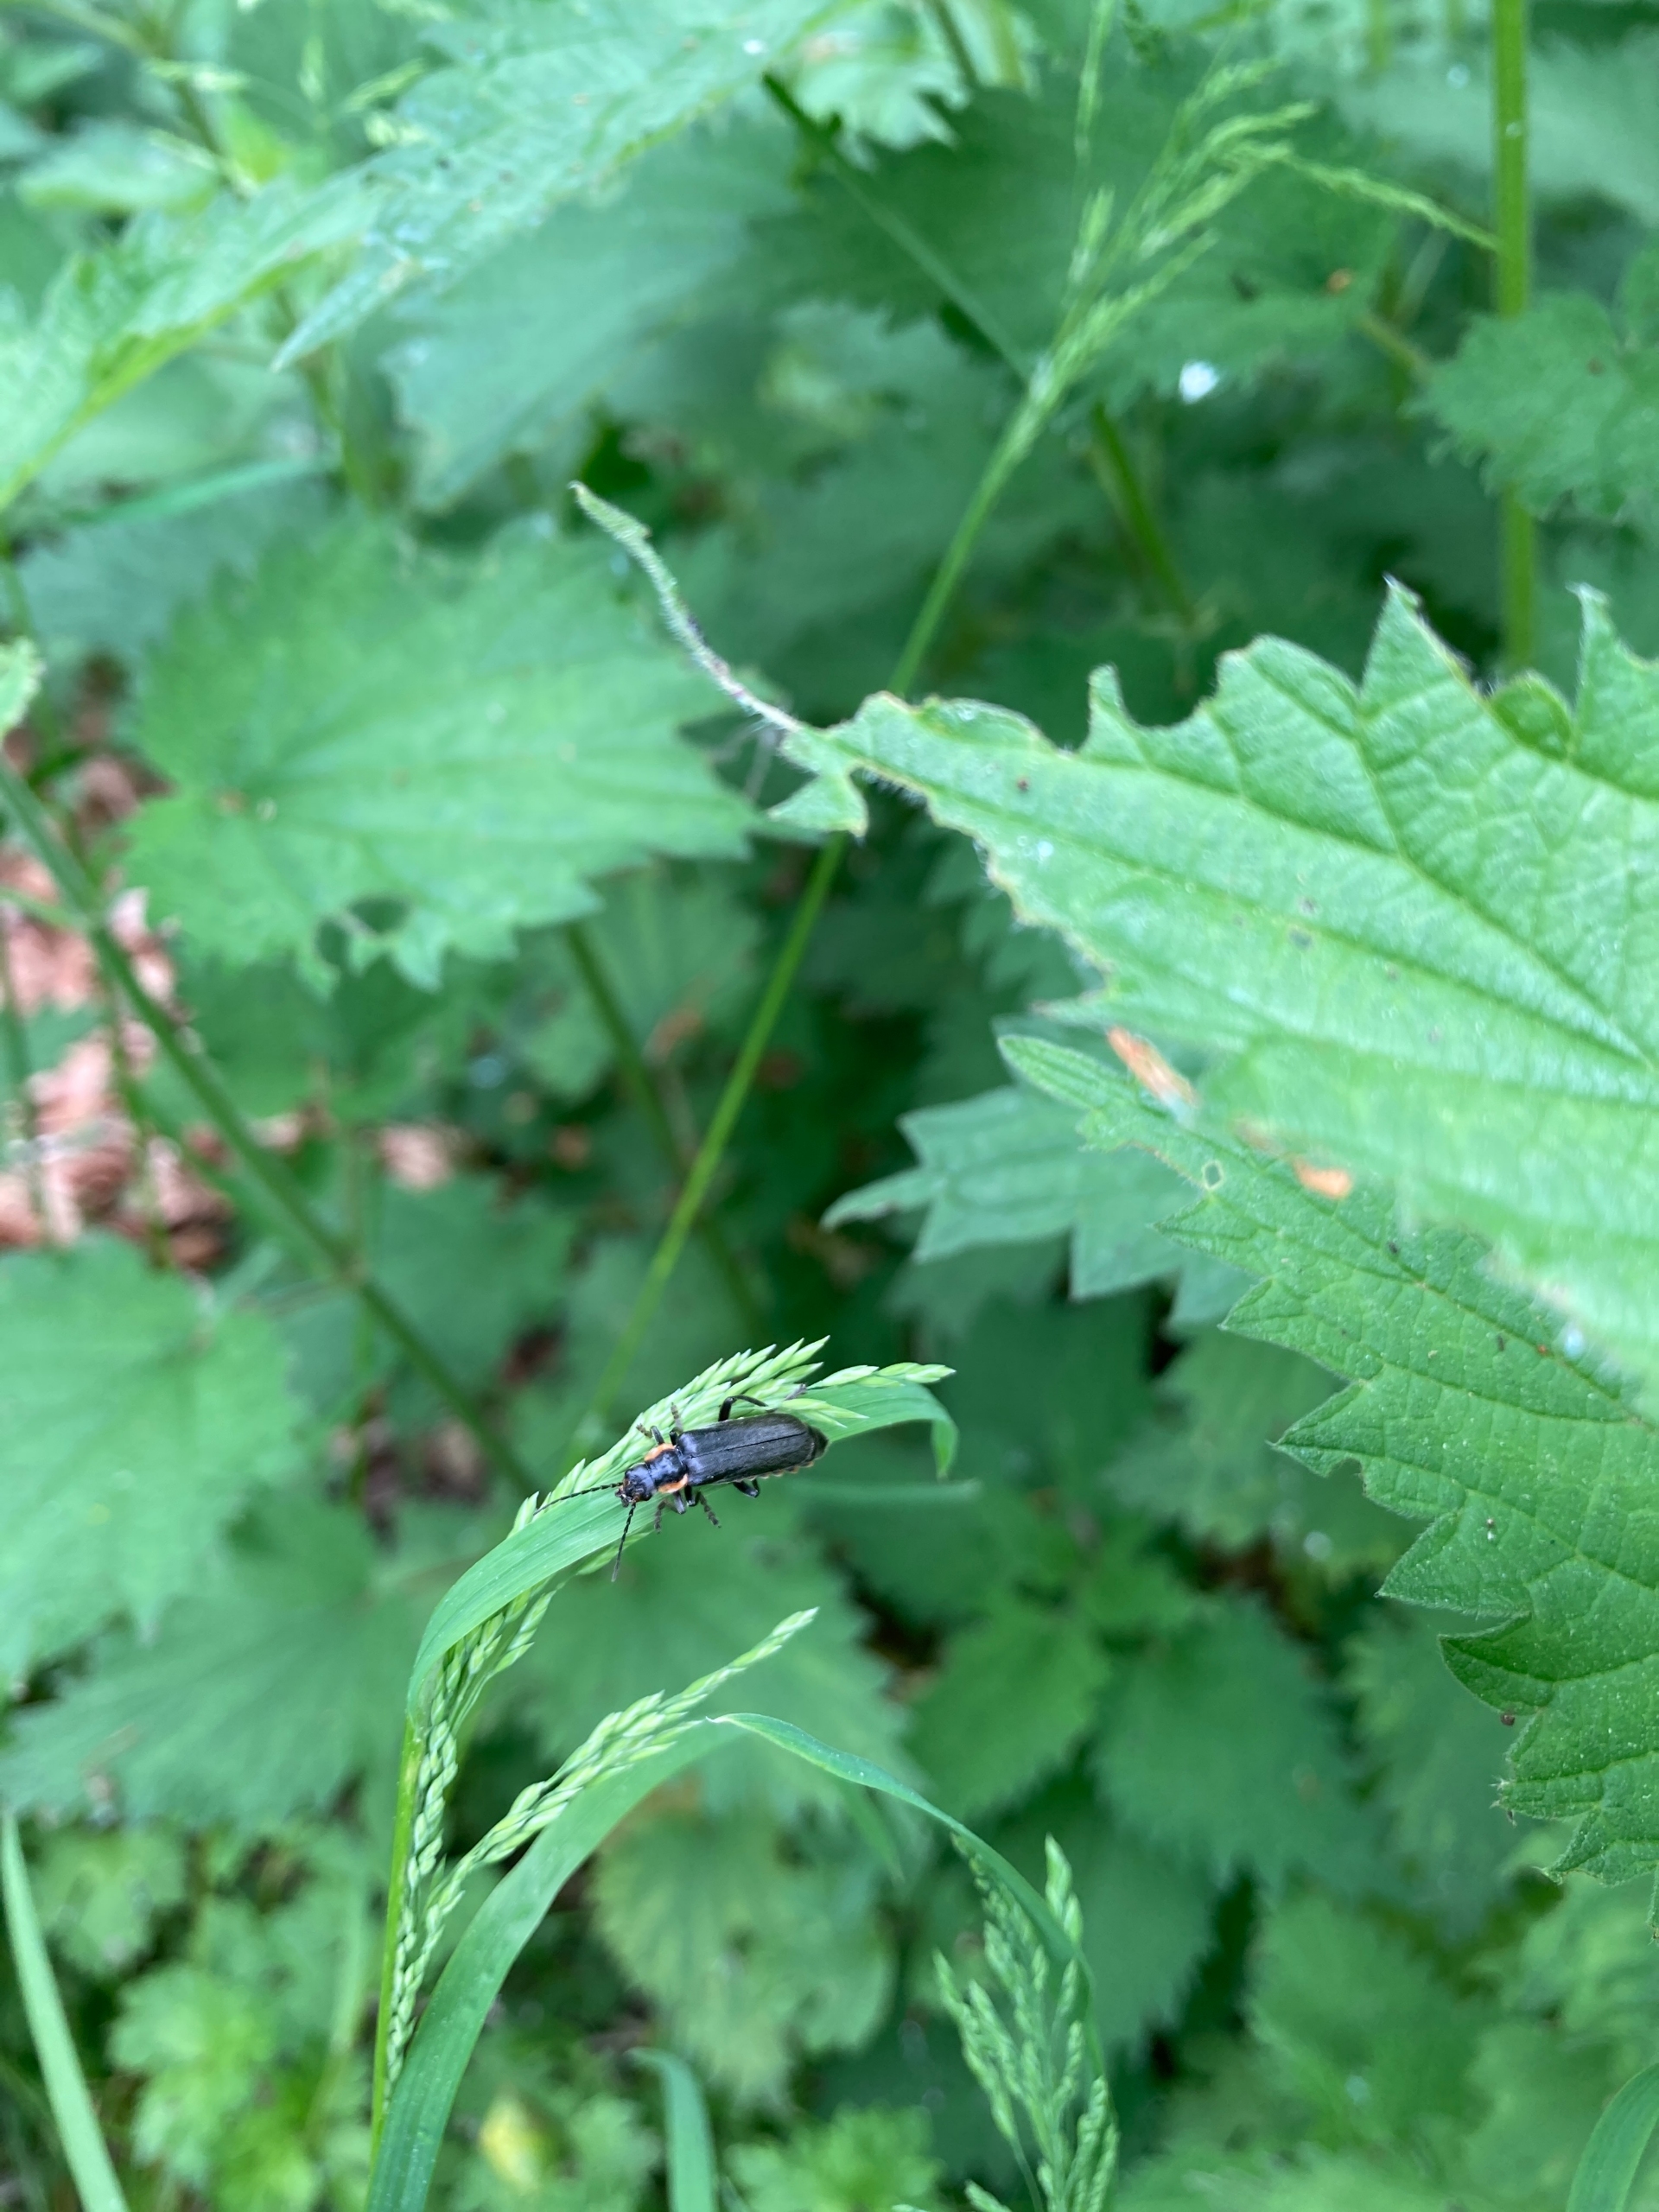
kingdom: Animalia
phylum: Arthropoda
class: Insecta
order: Coleoptera
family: Cantharidae
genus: Cantharis
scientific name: Cantharis obscura
